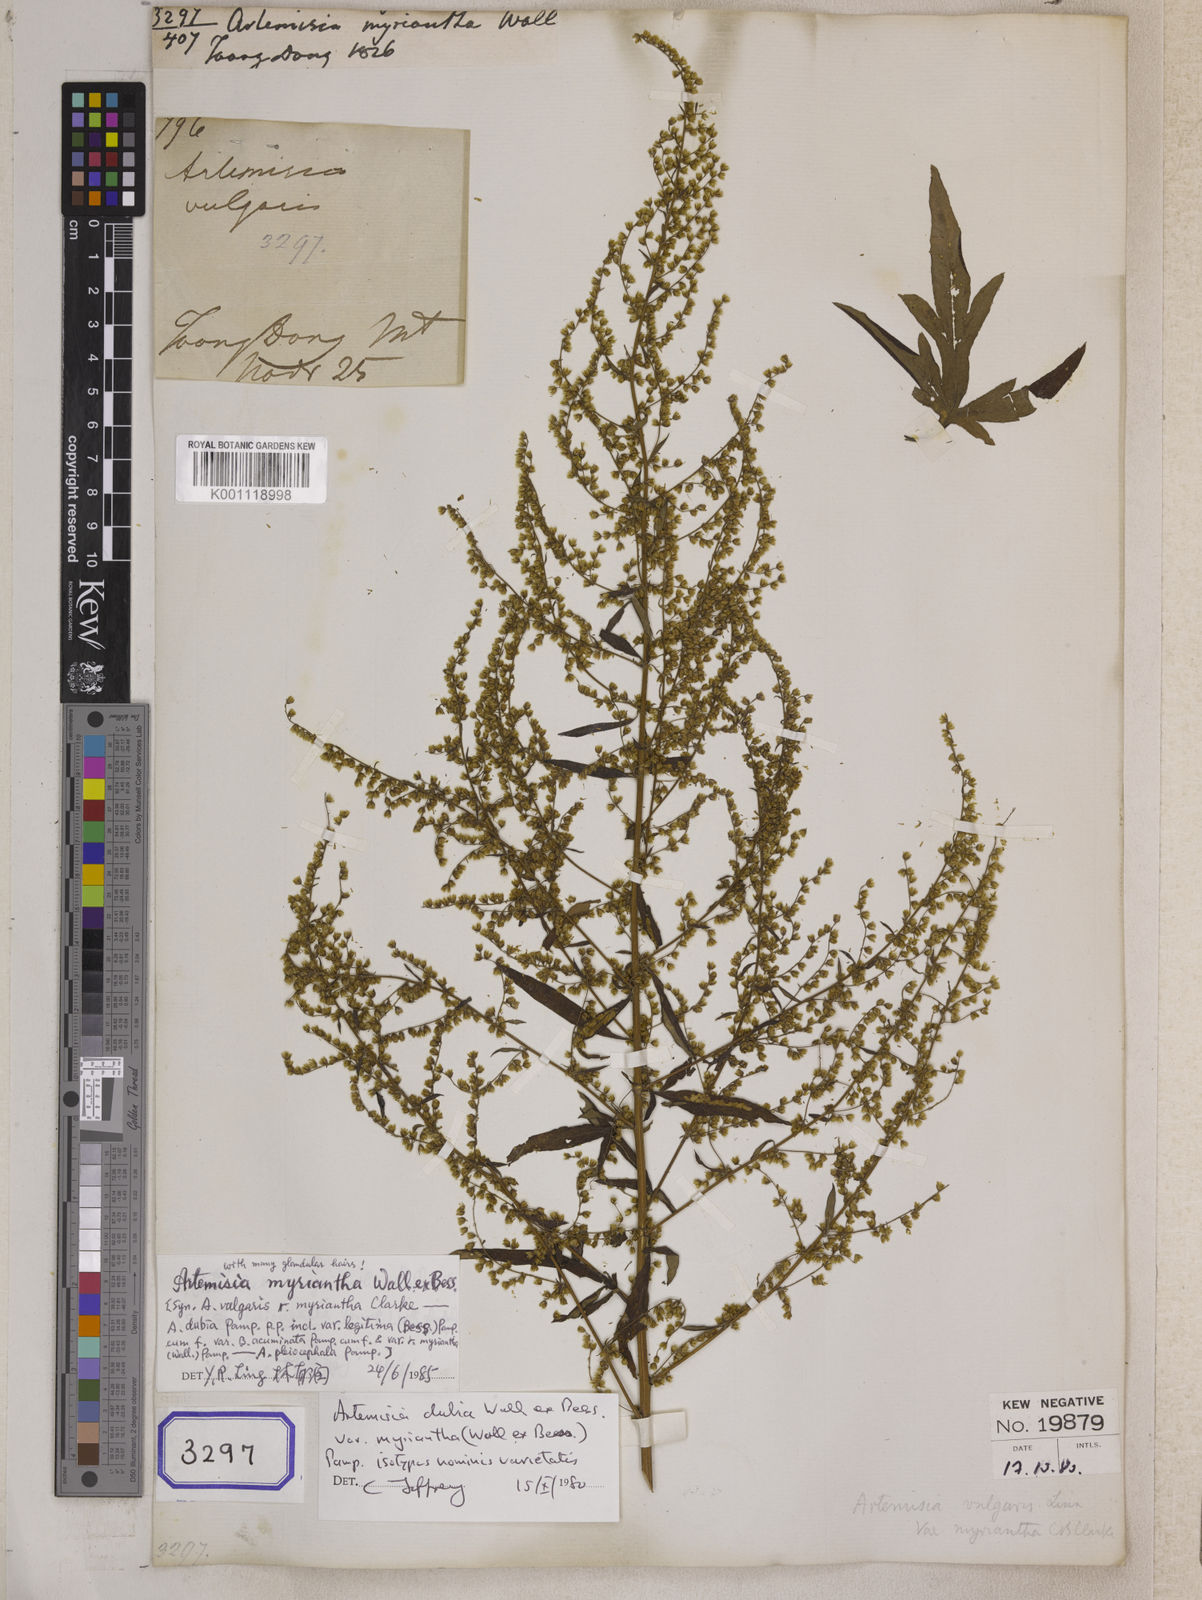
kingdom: Plantae
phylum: Tracheophyta
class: Magnoliopsida
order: Asterales
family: Asteraceae
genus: Artemisia
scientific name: Artemisia myriantha
